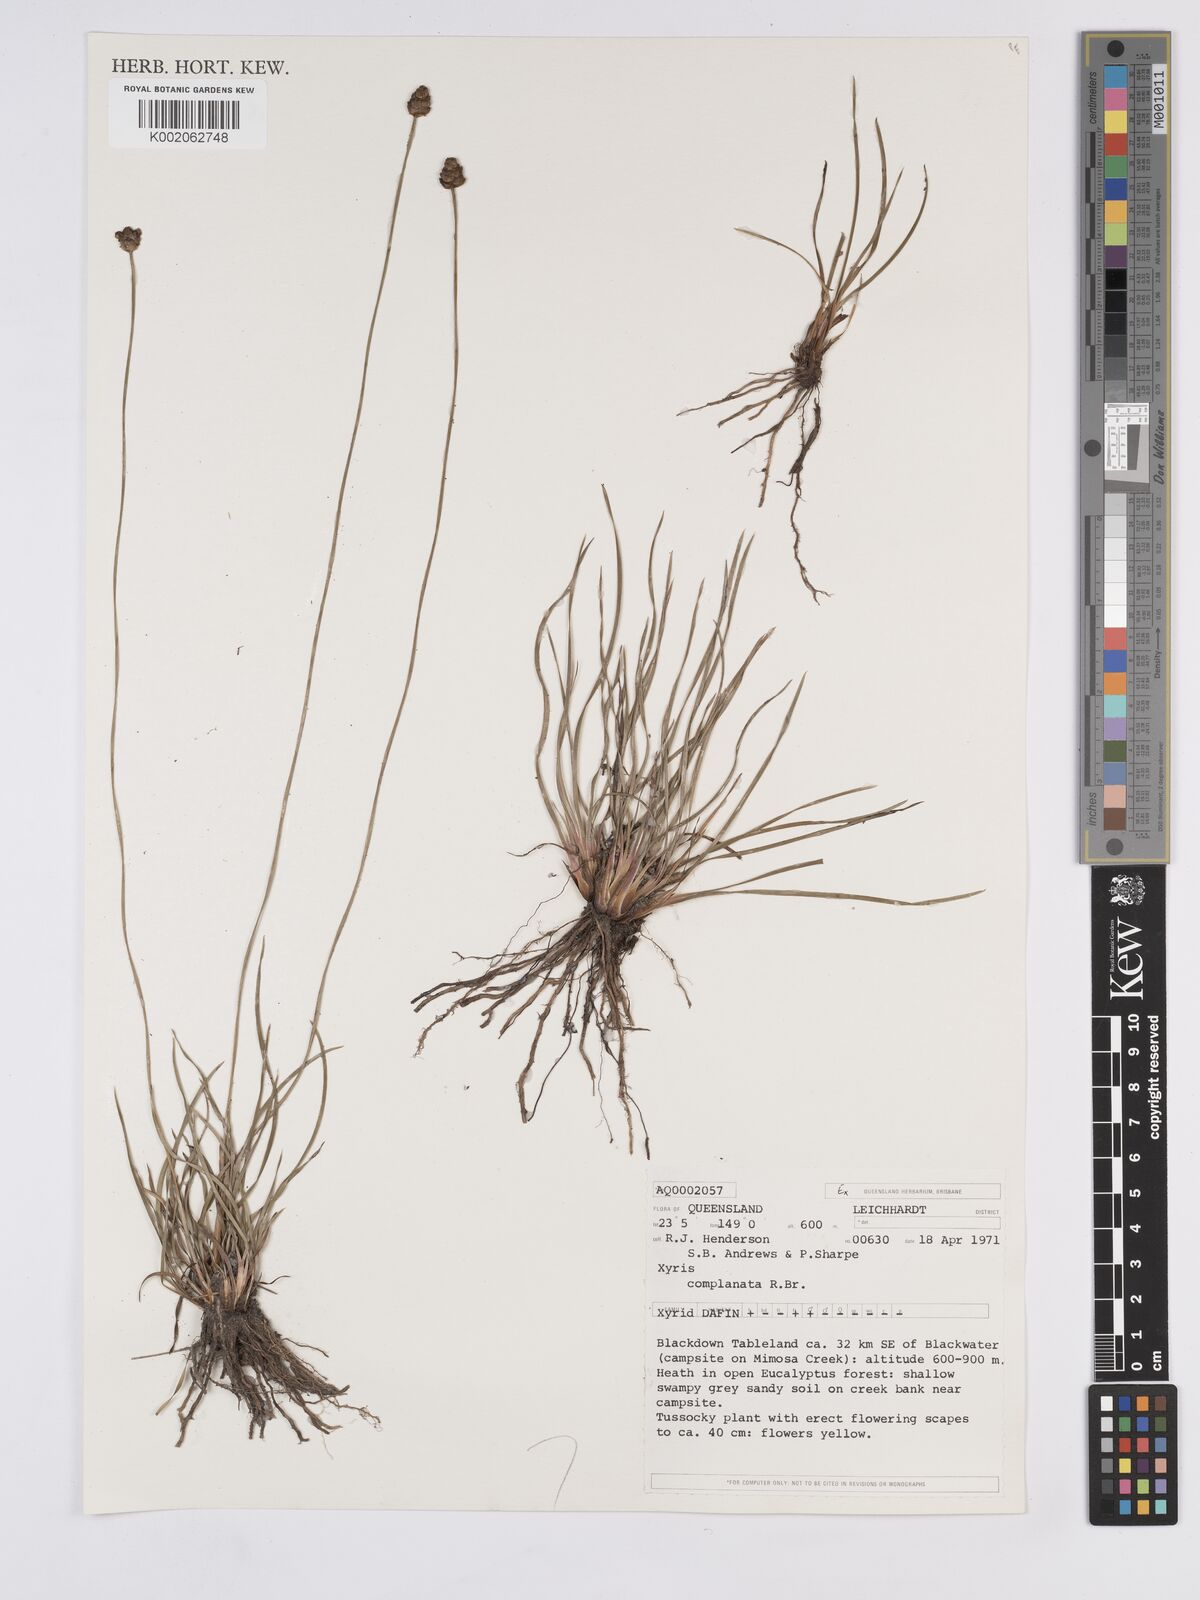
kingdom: Plantae
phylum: Tracheophyta
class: Liliopsida
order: Poales
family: Xyridaceae
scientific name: Xyridaceae
